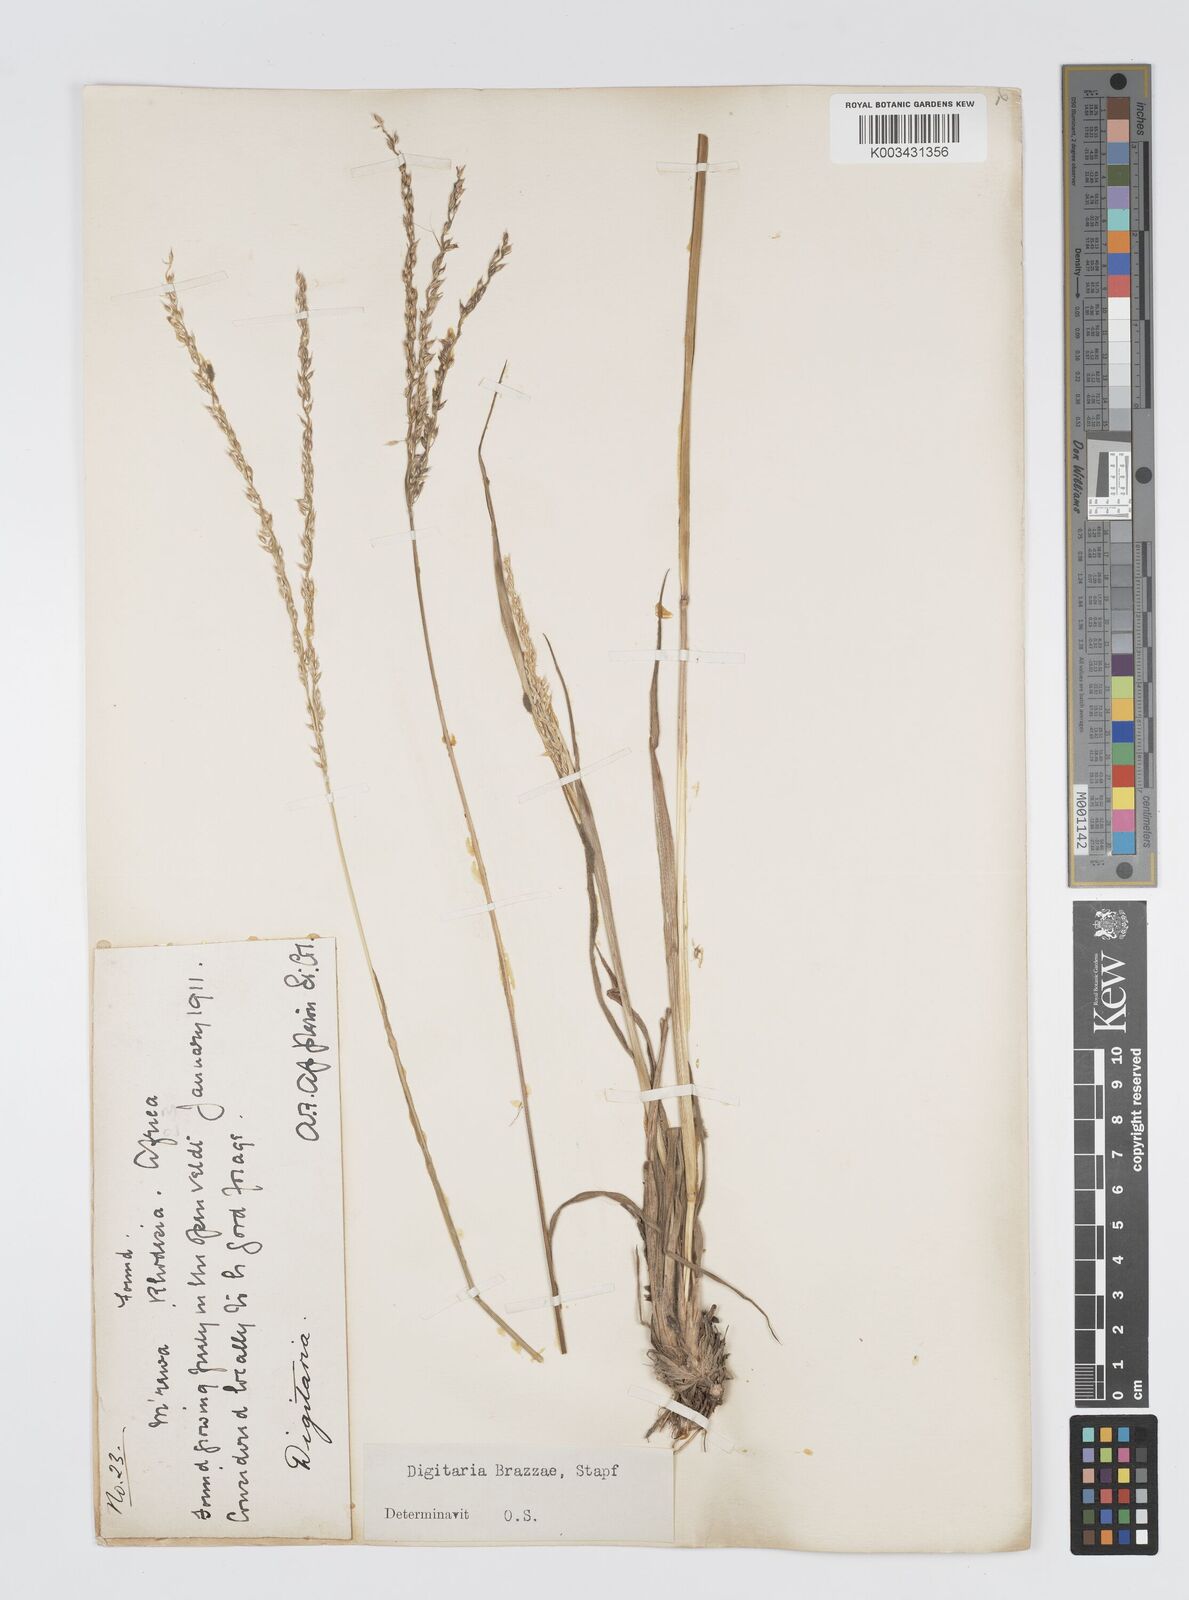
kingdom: Plantae
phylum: Tracheophyta
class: Liliopsida
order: Poales
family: Poaceae
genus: Digitaria
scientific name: Digitaria brazzae
